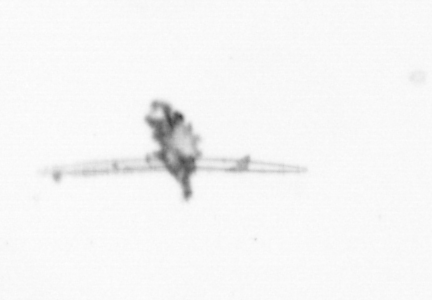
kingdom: Chromista
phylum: Ochrophyta
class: Bacillariophyceae
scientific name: Bacillariophyceae
